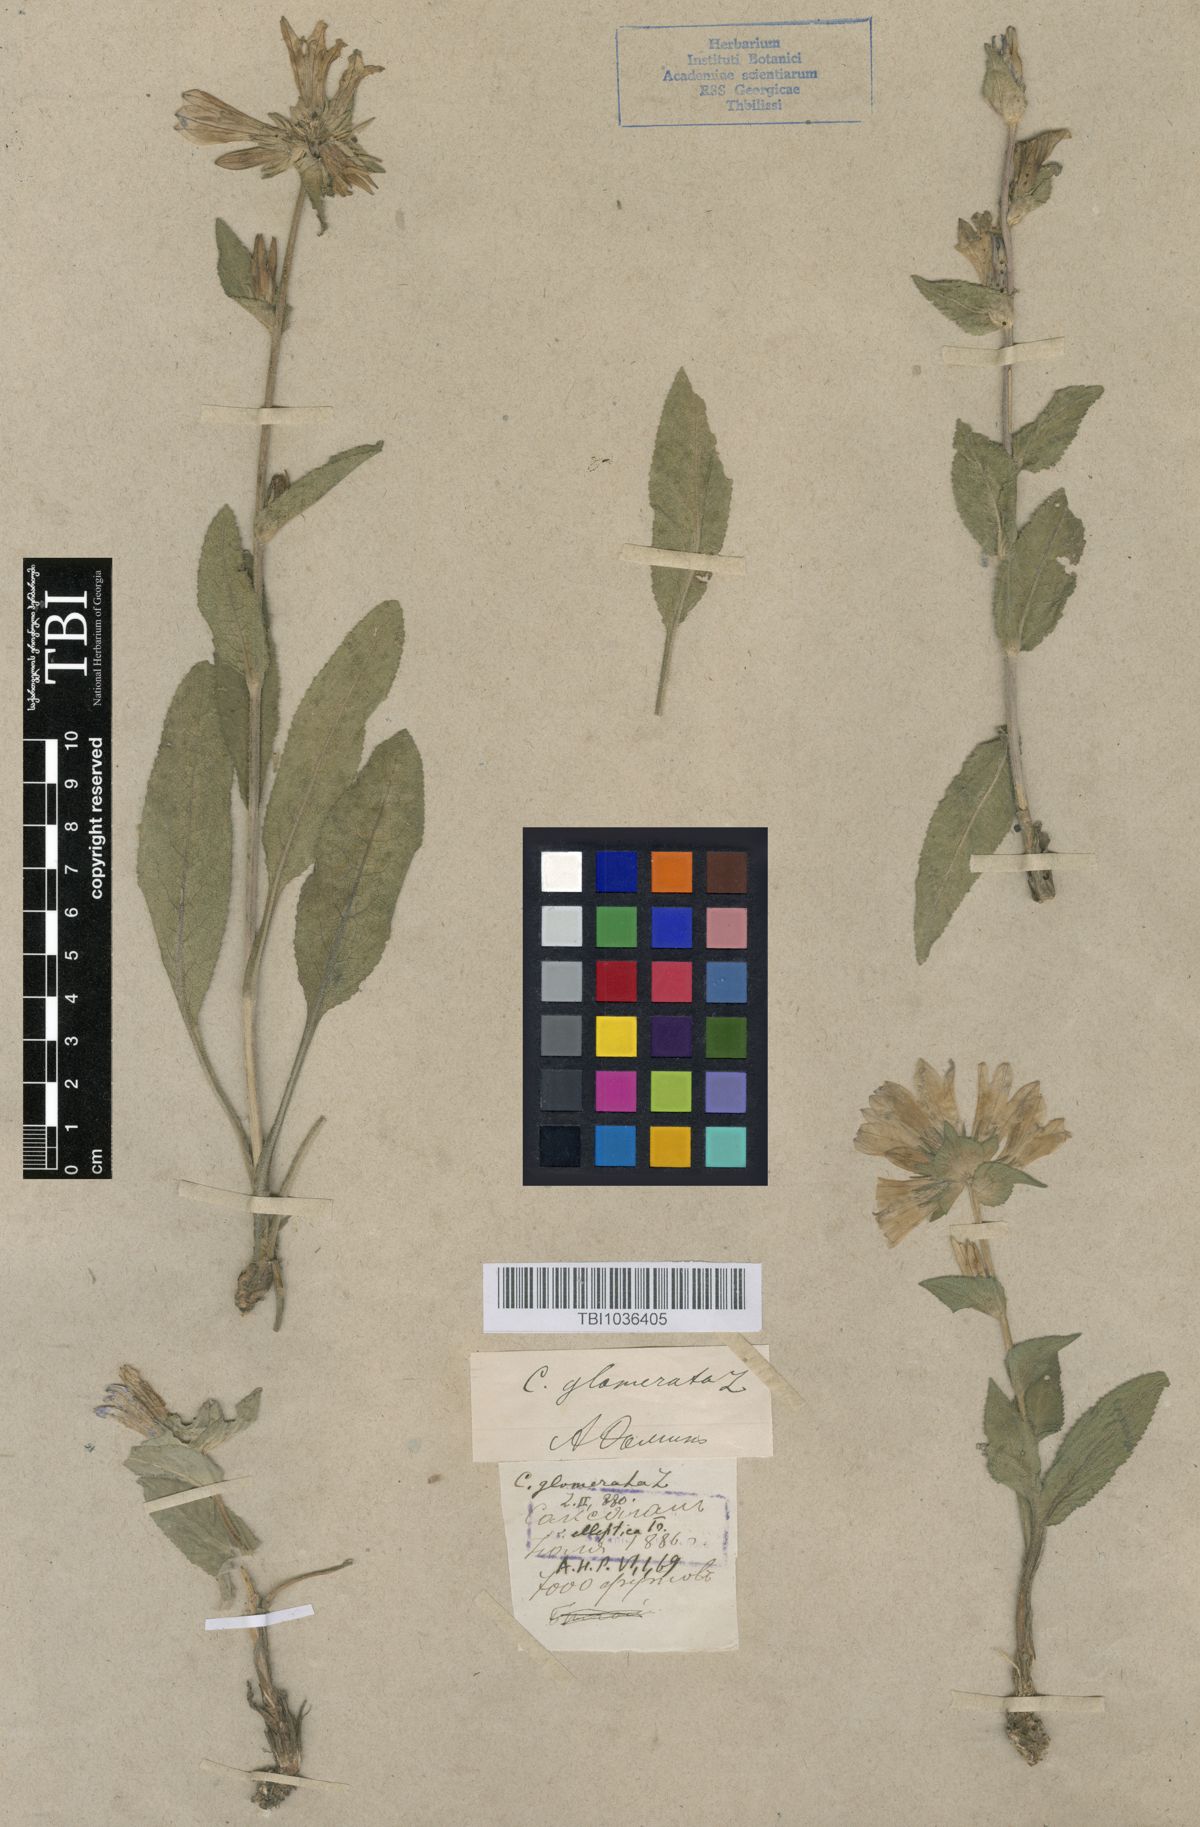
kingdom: Plantae
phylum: Tracheophyta
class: Magnoliopsida
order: Asterales
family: Campanulaceae
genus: Campanula
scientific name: Campanula glomerata
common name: Clustered bellflower
